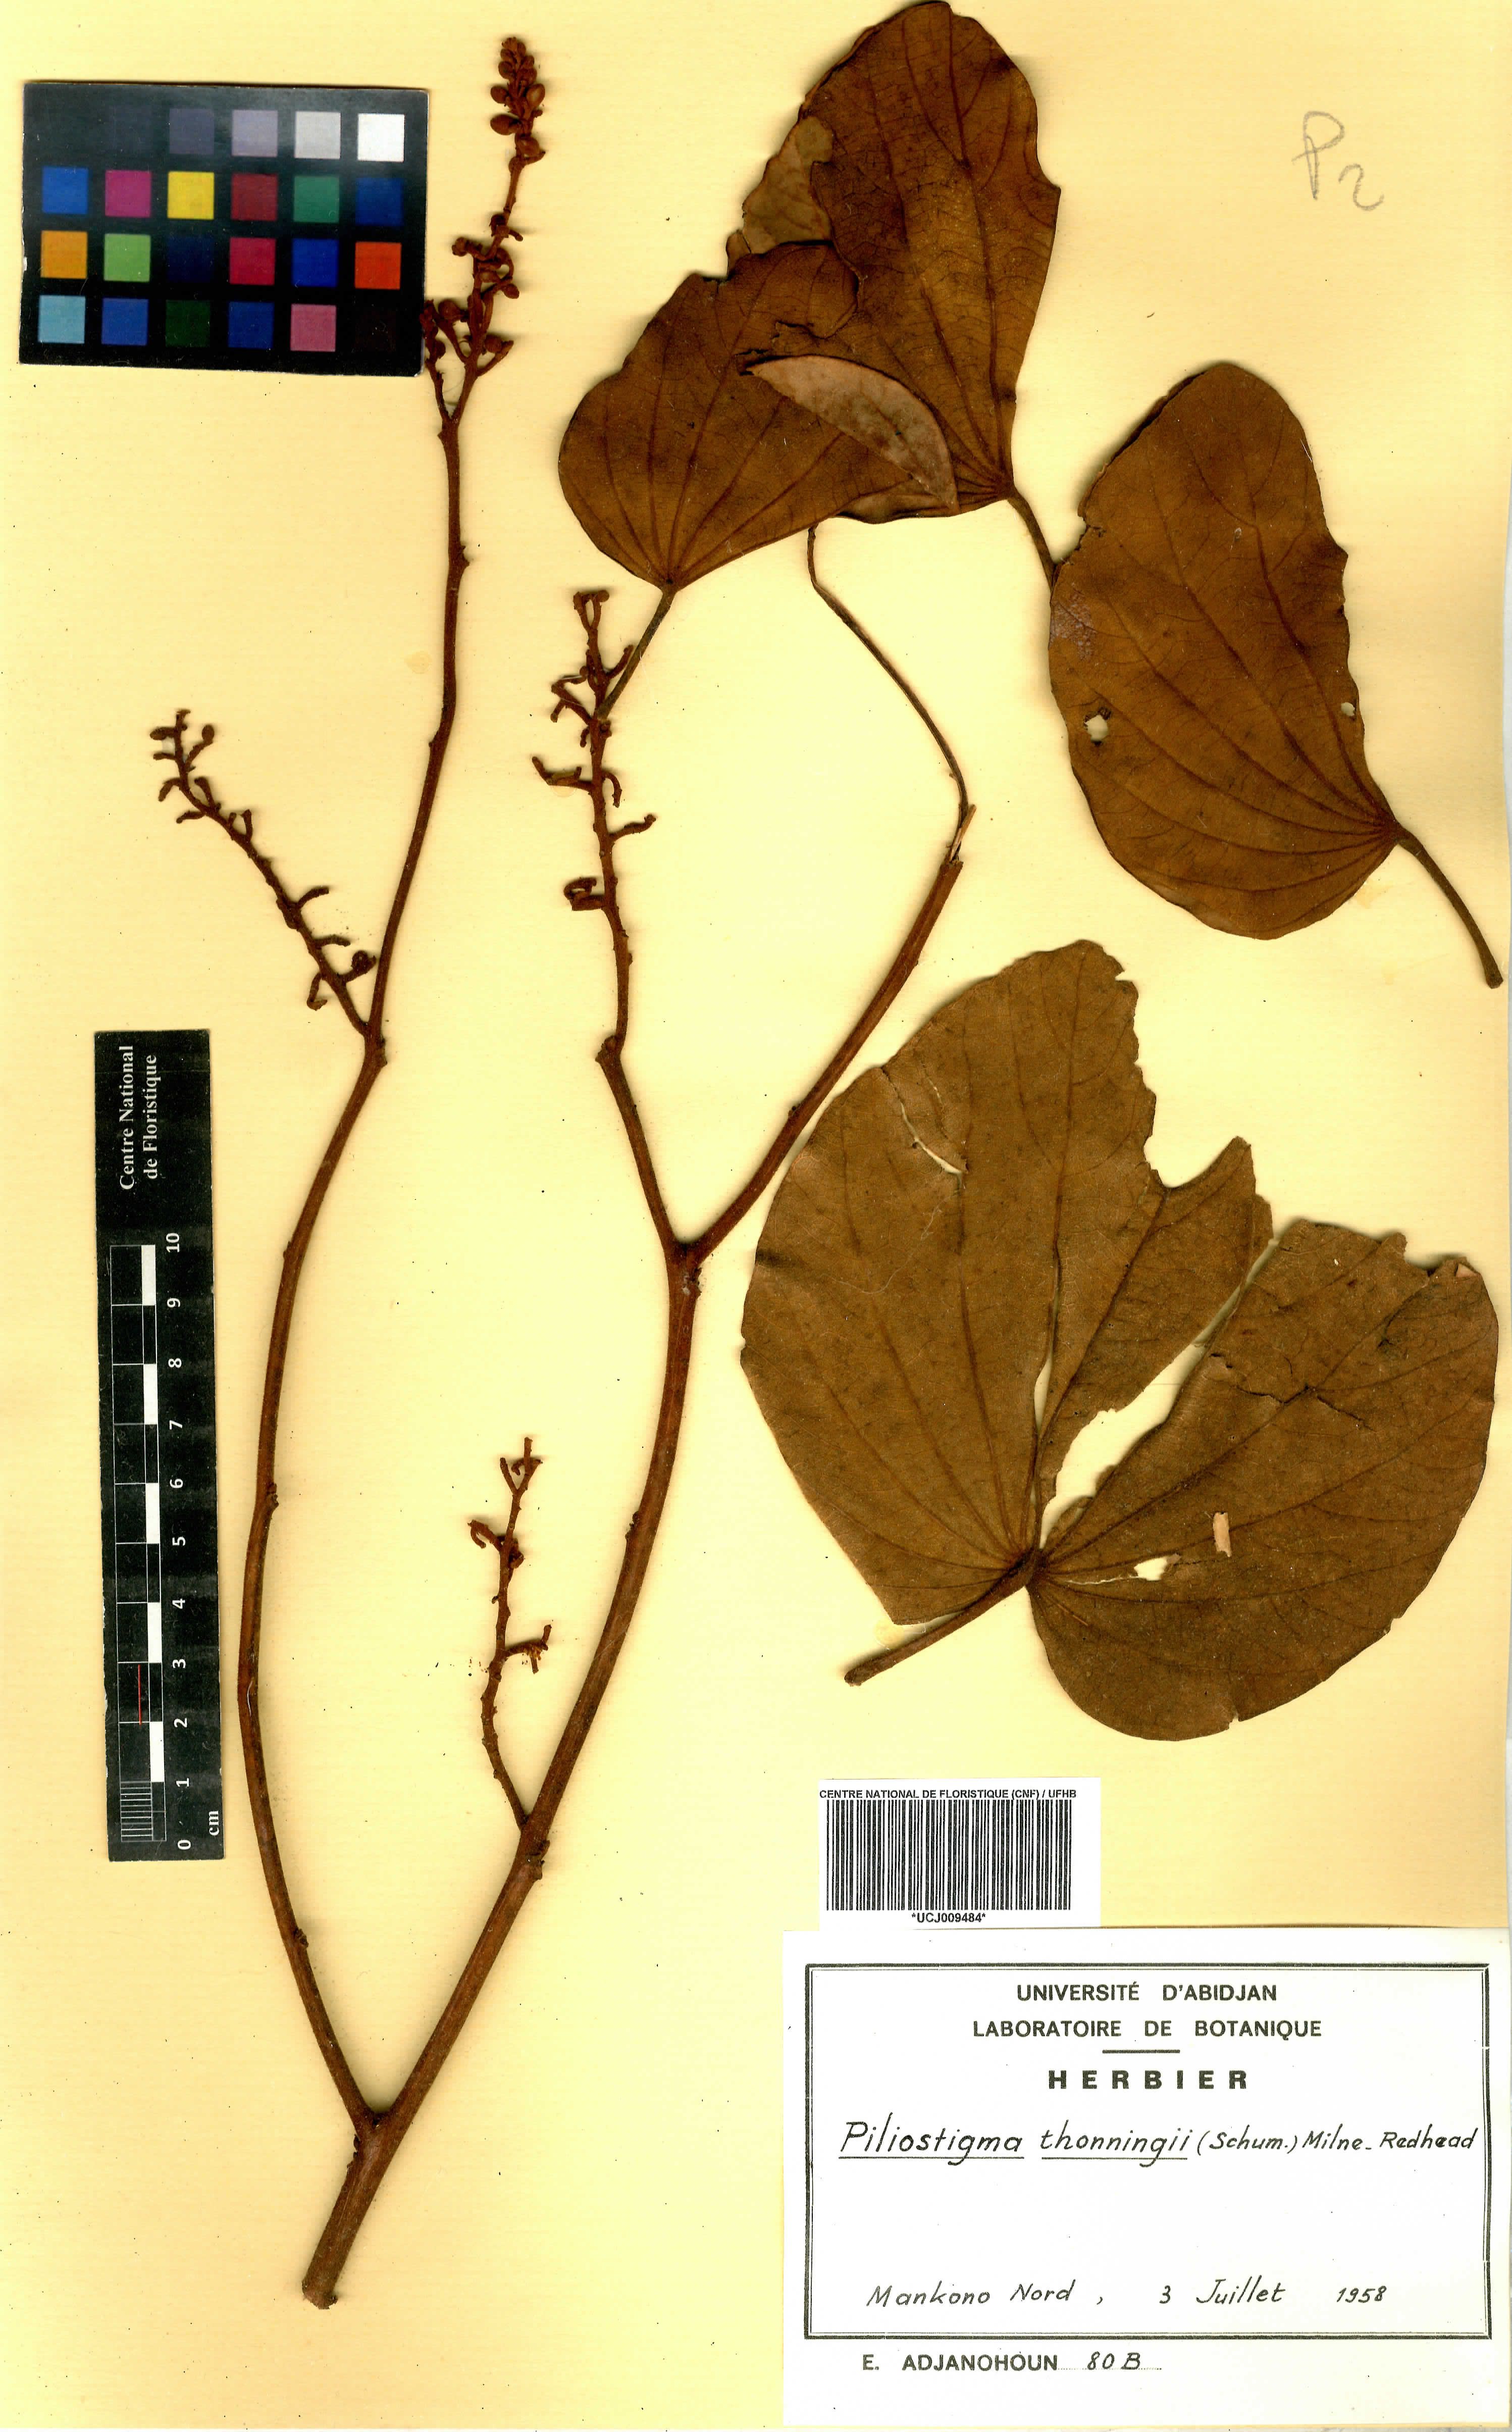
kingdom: Plantae
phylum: Tracheophyta
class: Magnoliopsida
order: Fabales
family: Fabaceae
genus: Piliostigma
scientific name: Piliostigma thonningii
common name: Kao
